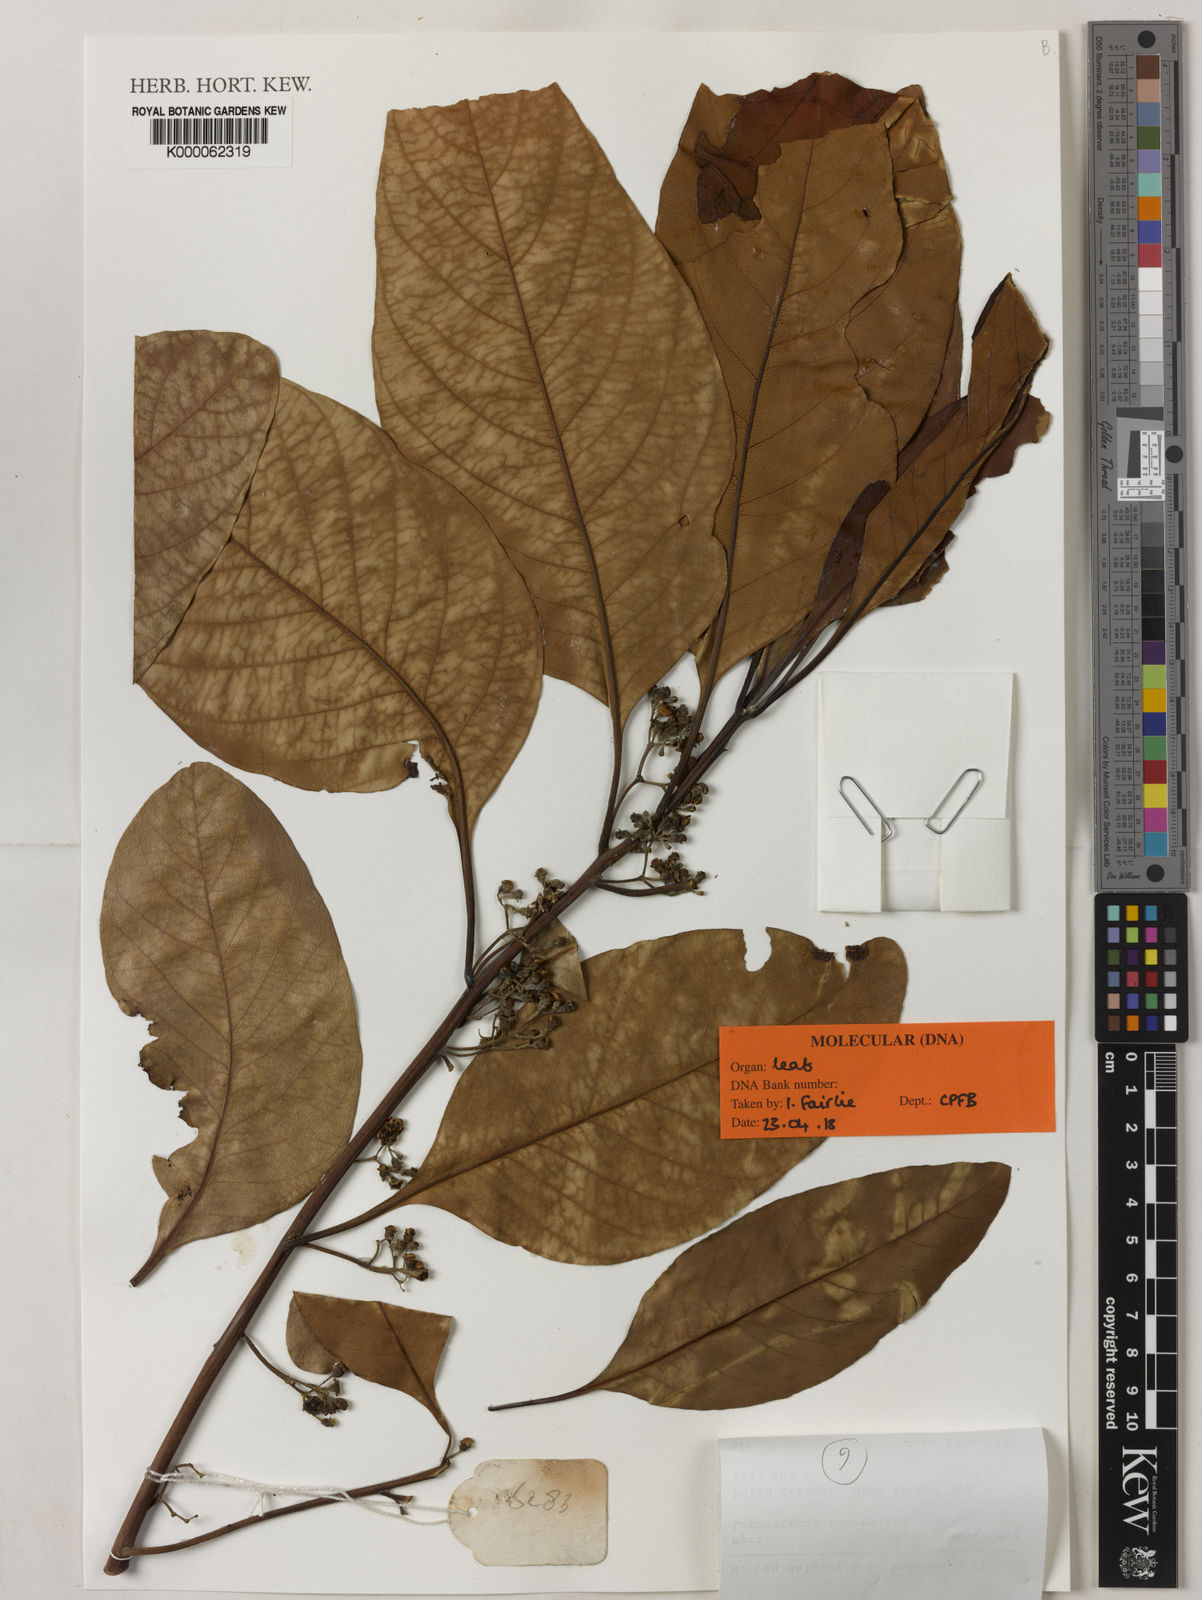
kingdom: Plantae
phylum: Tracheophyta
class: Magnoliopsida
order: Myrtales
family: Myrtaceae
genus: Lophostemon
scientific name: Lophostemon suaveolens
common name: Paperbark-mahogany
